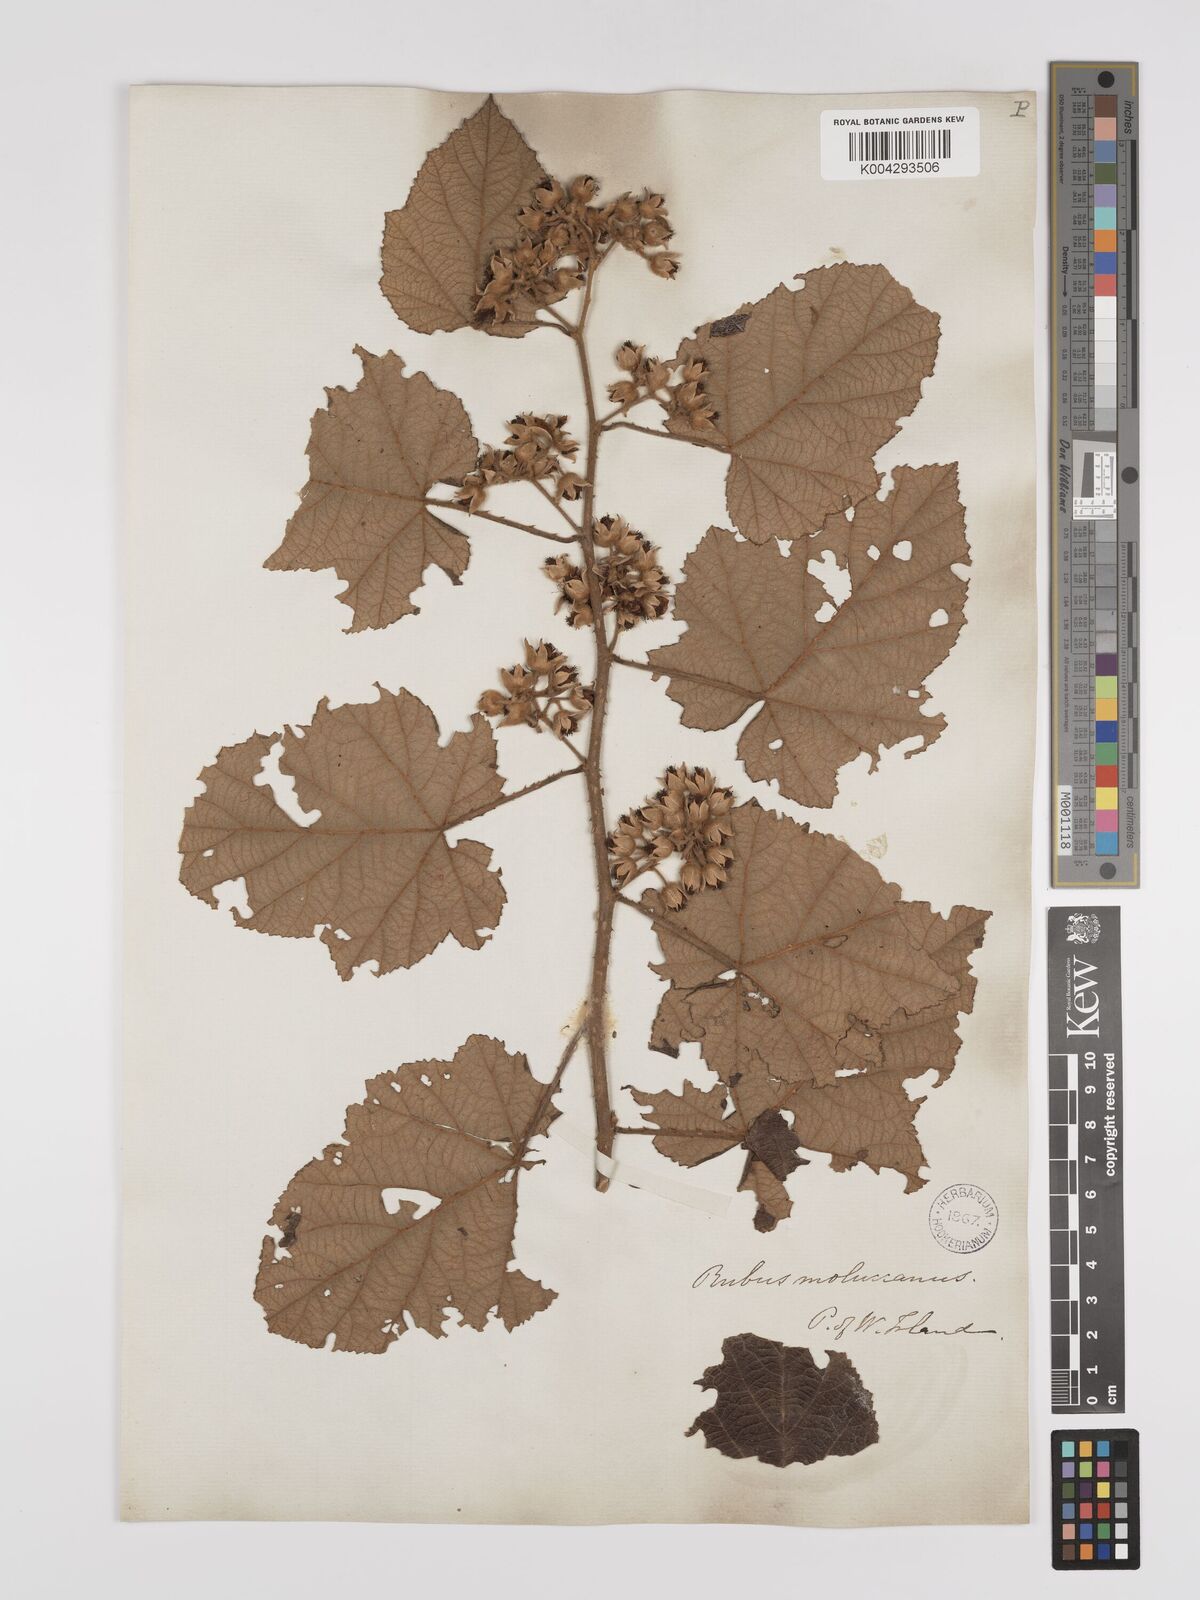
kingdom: Plantae
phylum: Tracheophyta
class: Magnoliopsida
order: Rosales
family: Rosaceae
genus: Rubus
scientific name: Rubus moluccanus
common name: Wild raspberry
